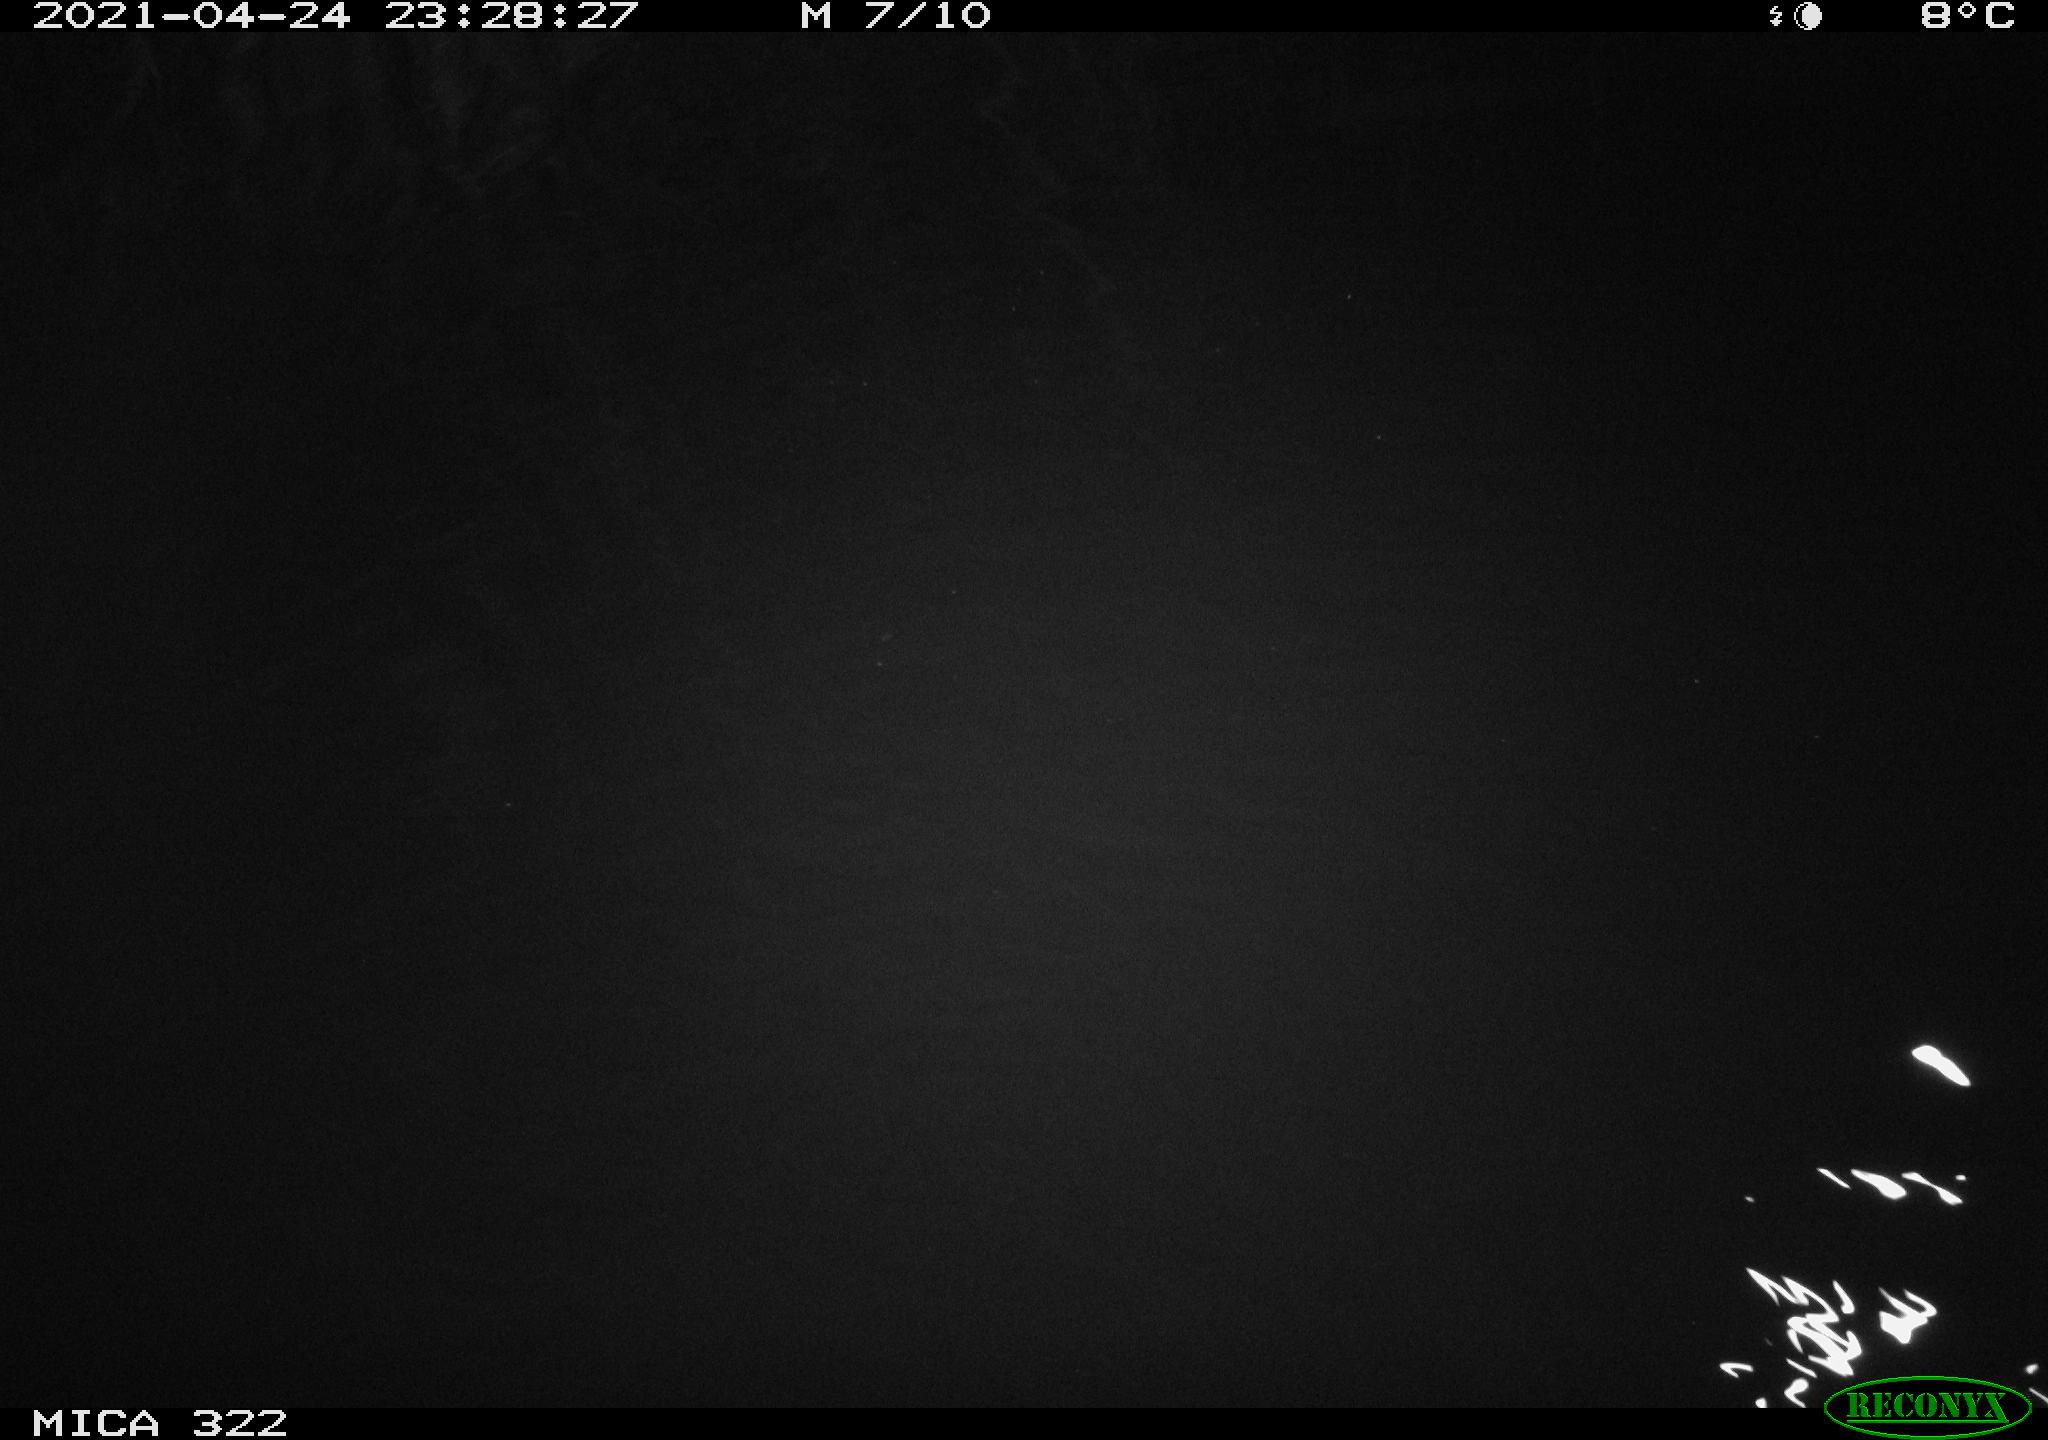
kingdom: Animalia
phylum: Chordata
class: Mammalia
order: Rodentia
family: Muridae
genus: Rattus
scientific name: Rattus norvegicus
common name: Brown rat
